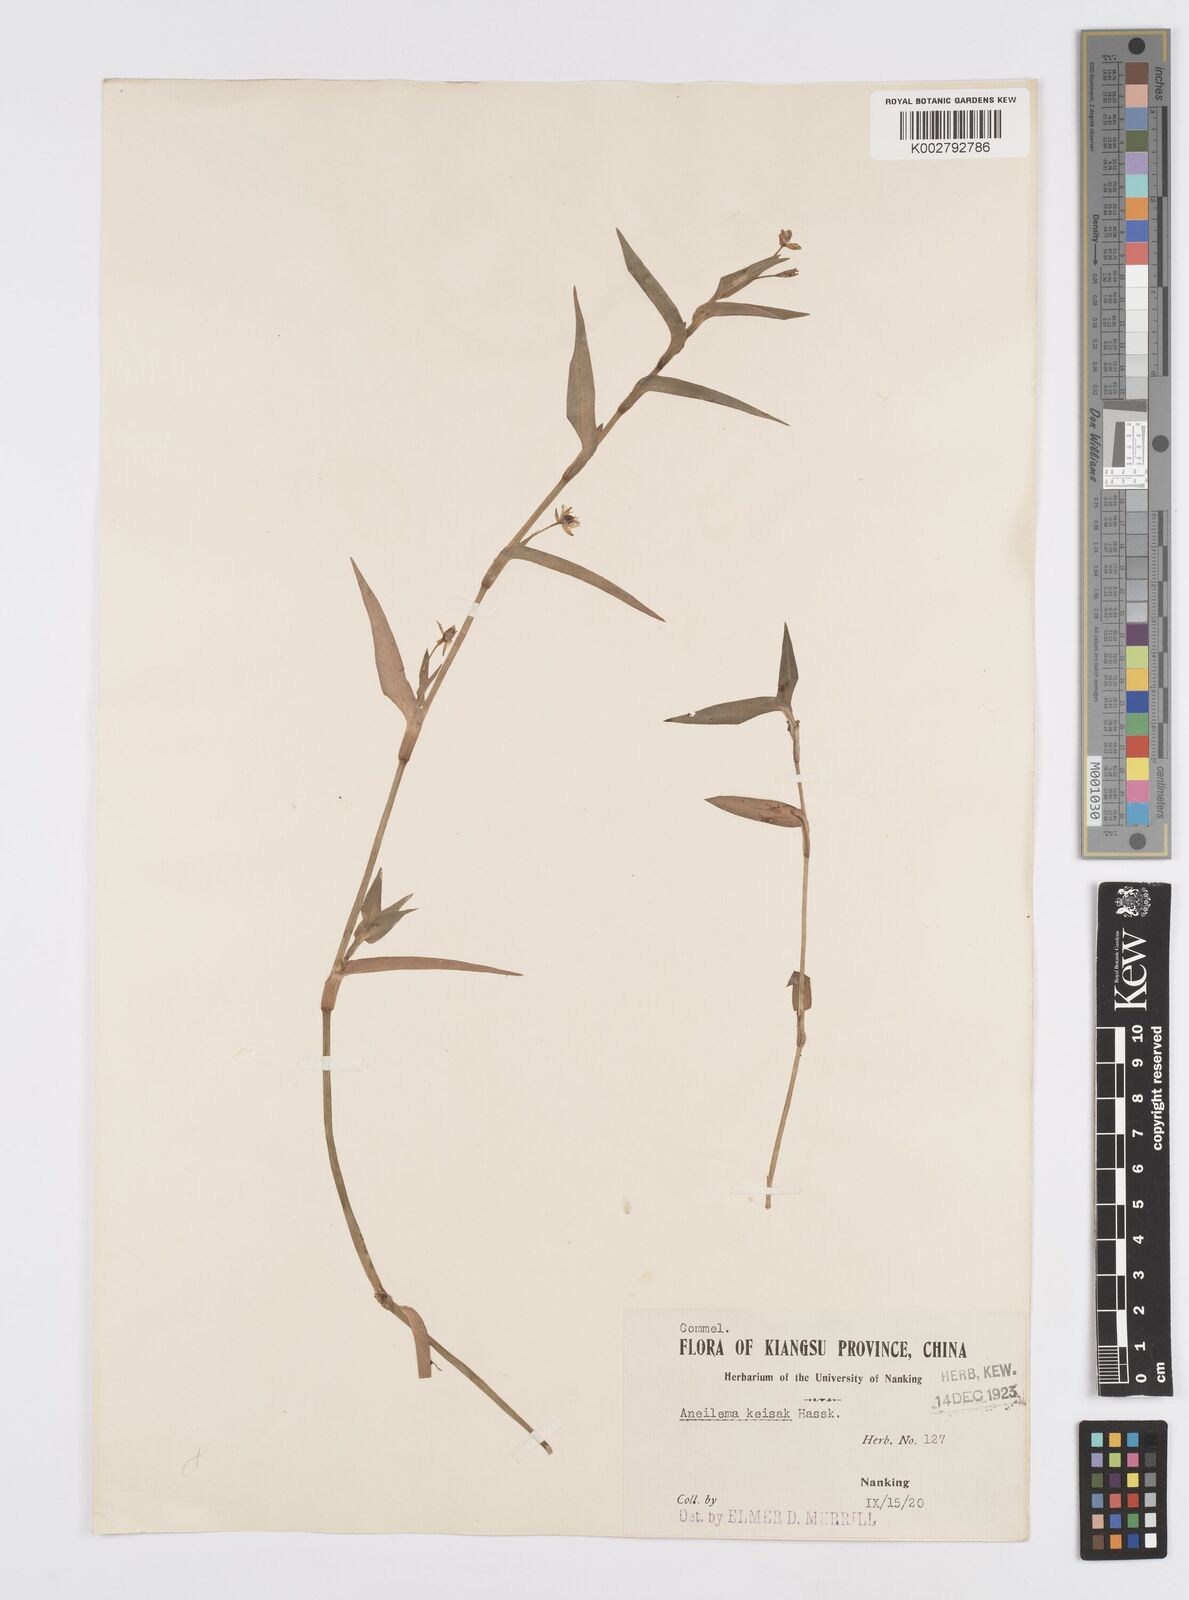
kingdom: Plantae
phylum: Tracheophyta
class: Liliopsida
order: Commelinales
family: Commelinaceae
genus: Murdannia
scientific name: Murdannia keisak
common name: Wartremoving herb
